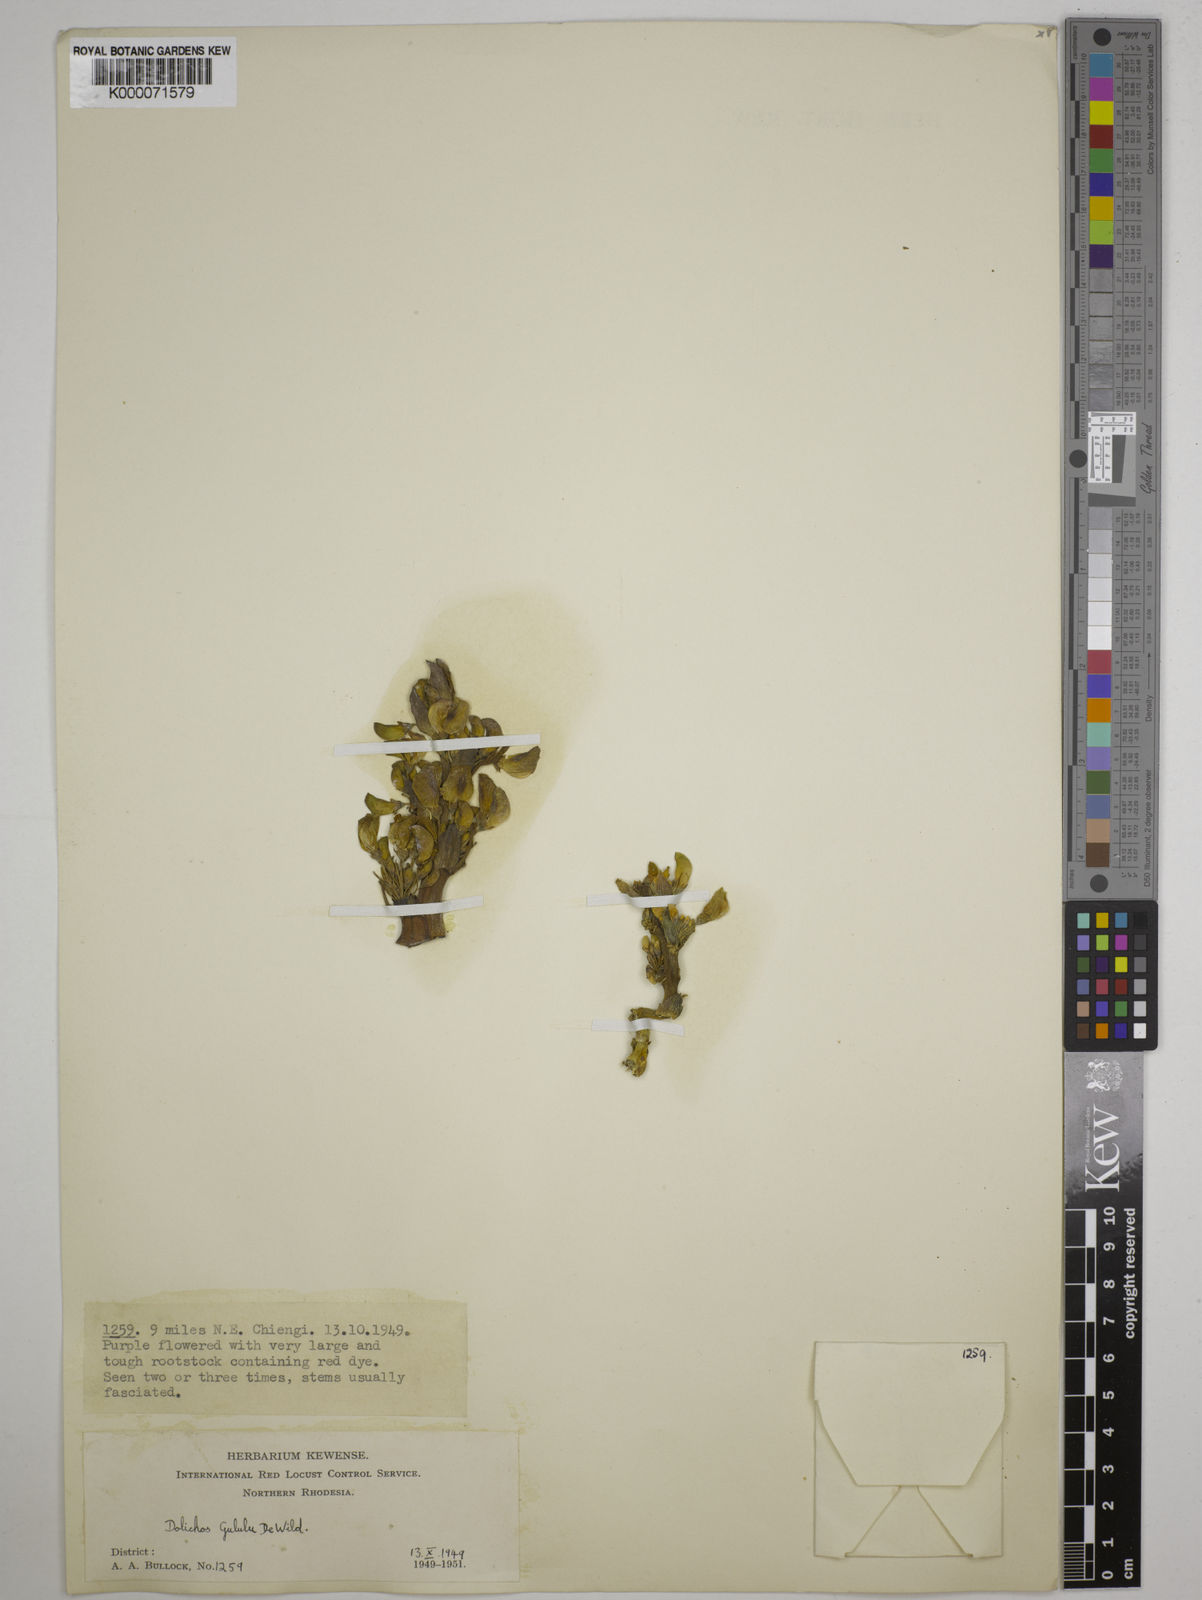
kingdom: Plantae
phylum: Tracheophyta
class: Magnoliopsida
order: Fabales
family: Fabaceae
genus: Dolichos
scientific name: Dolichos gululu
